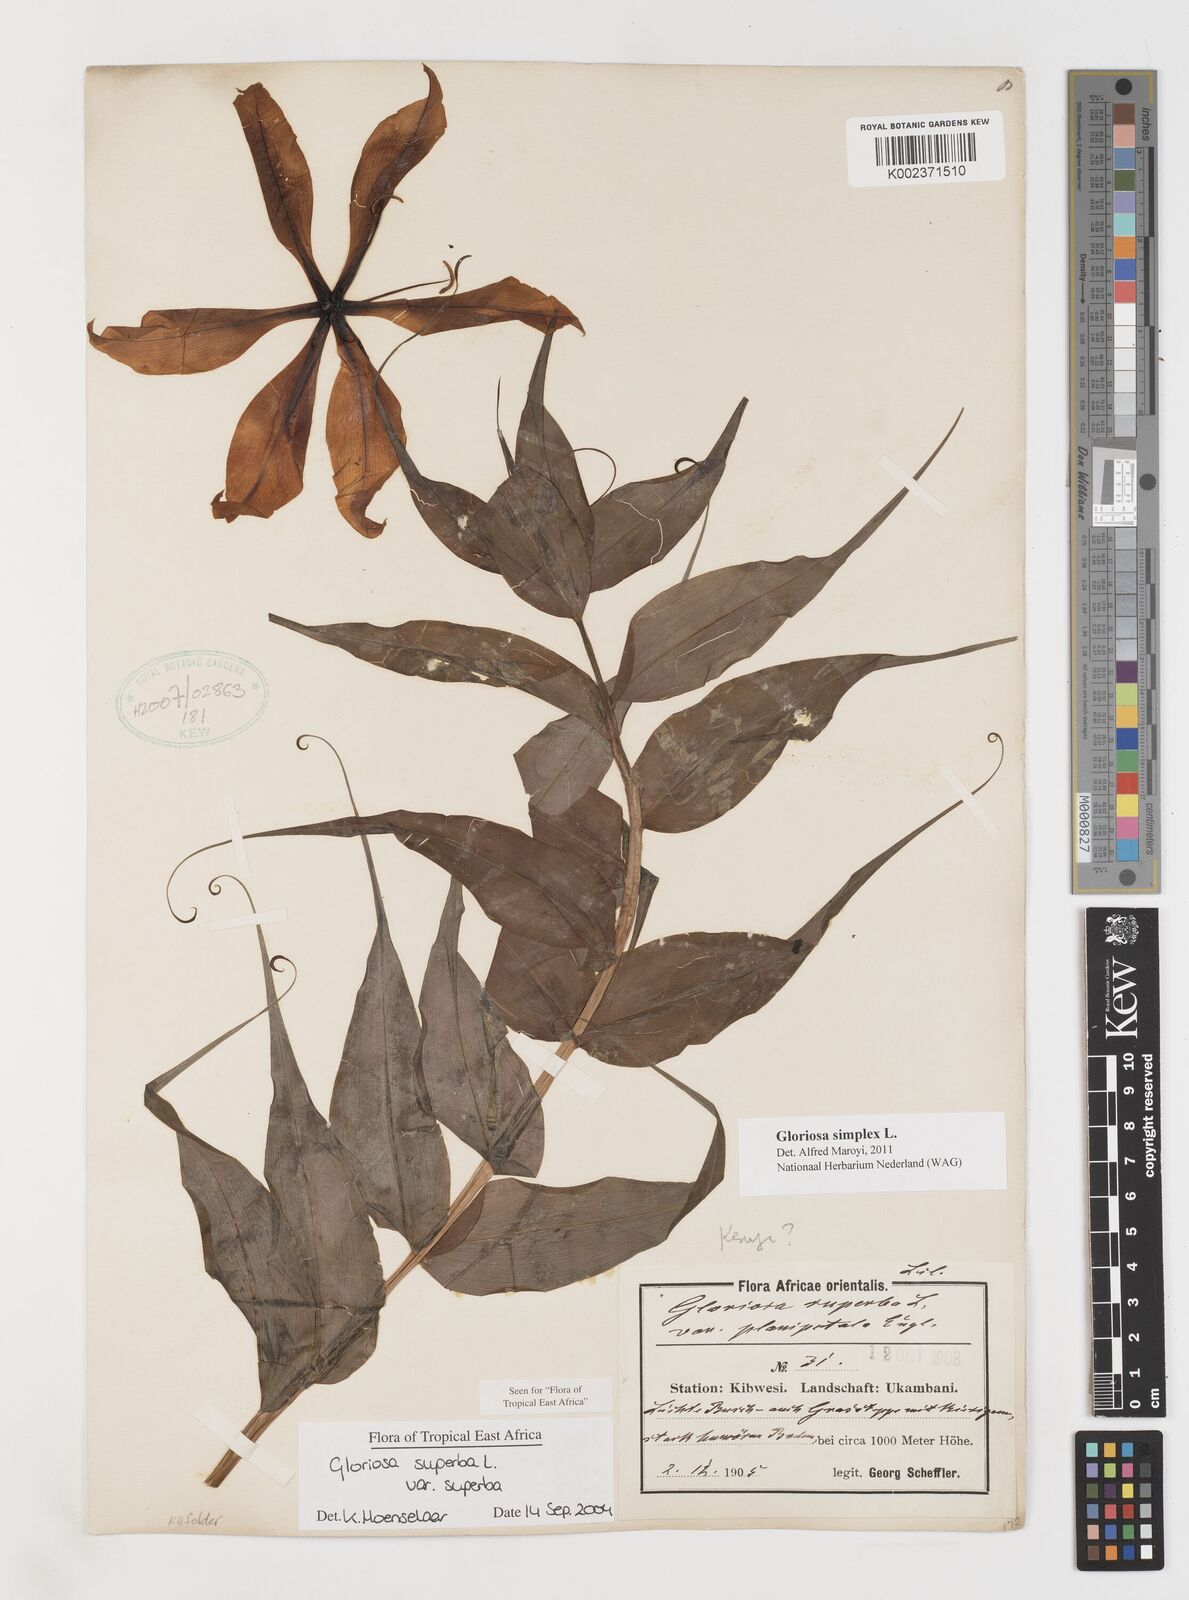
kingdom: Plantae
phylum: Tracheophyta
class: Liliopsida
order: Liliales
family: Colchicaceae
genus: Gloriosa
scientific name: Gloriosa simplex
